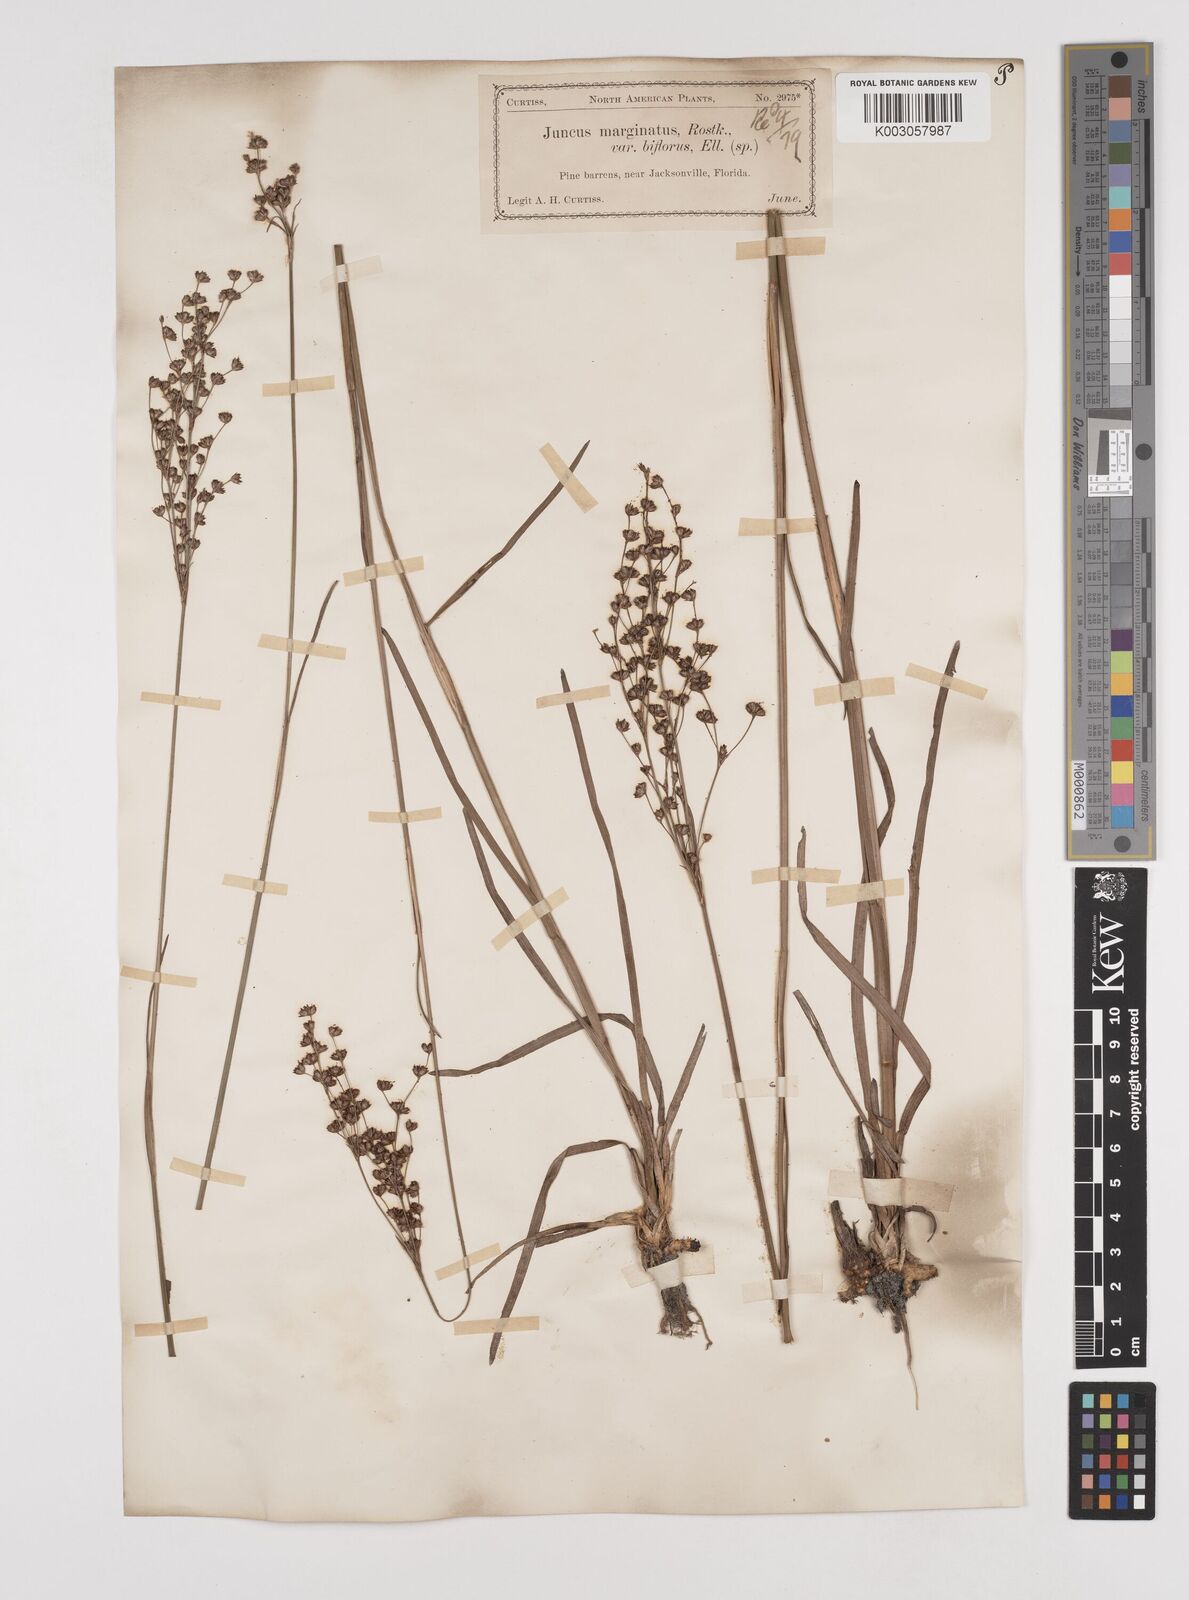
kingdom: Plantae
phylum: Tracheophyta
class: Liliopsida
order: Poales
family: Juncaceae
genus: Juncus
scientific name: Juncus marginatus
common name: Grass-leaf rush
